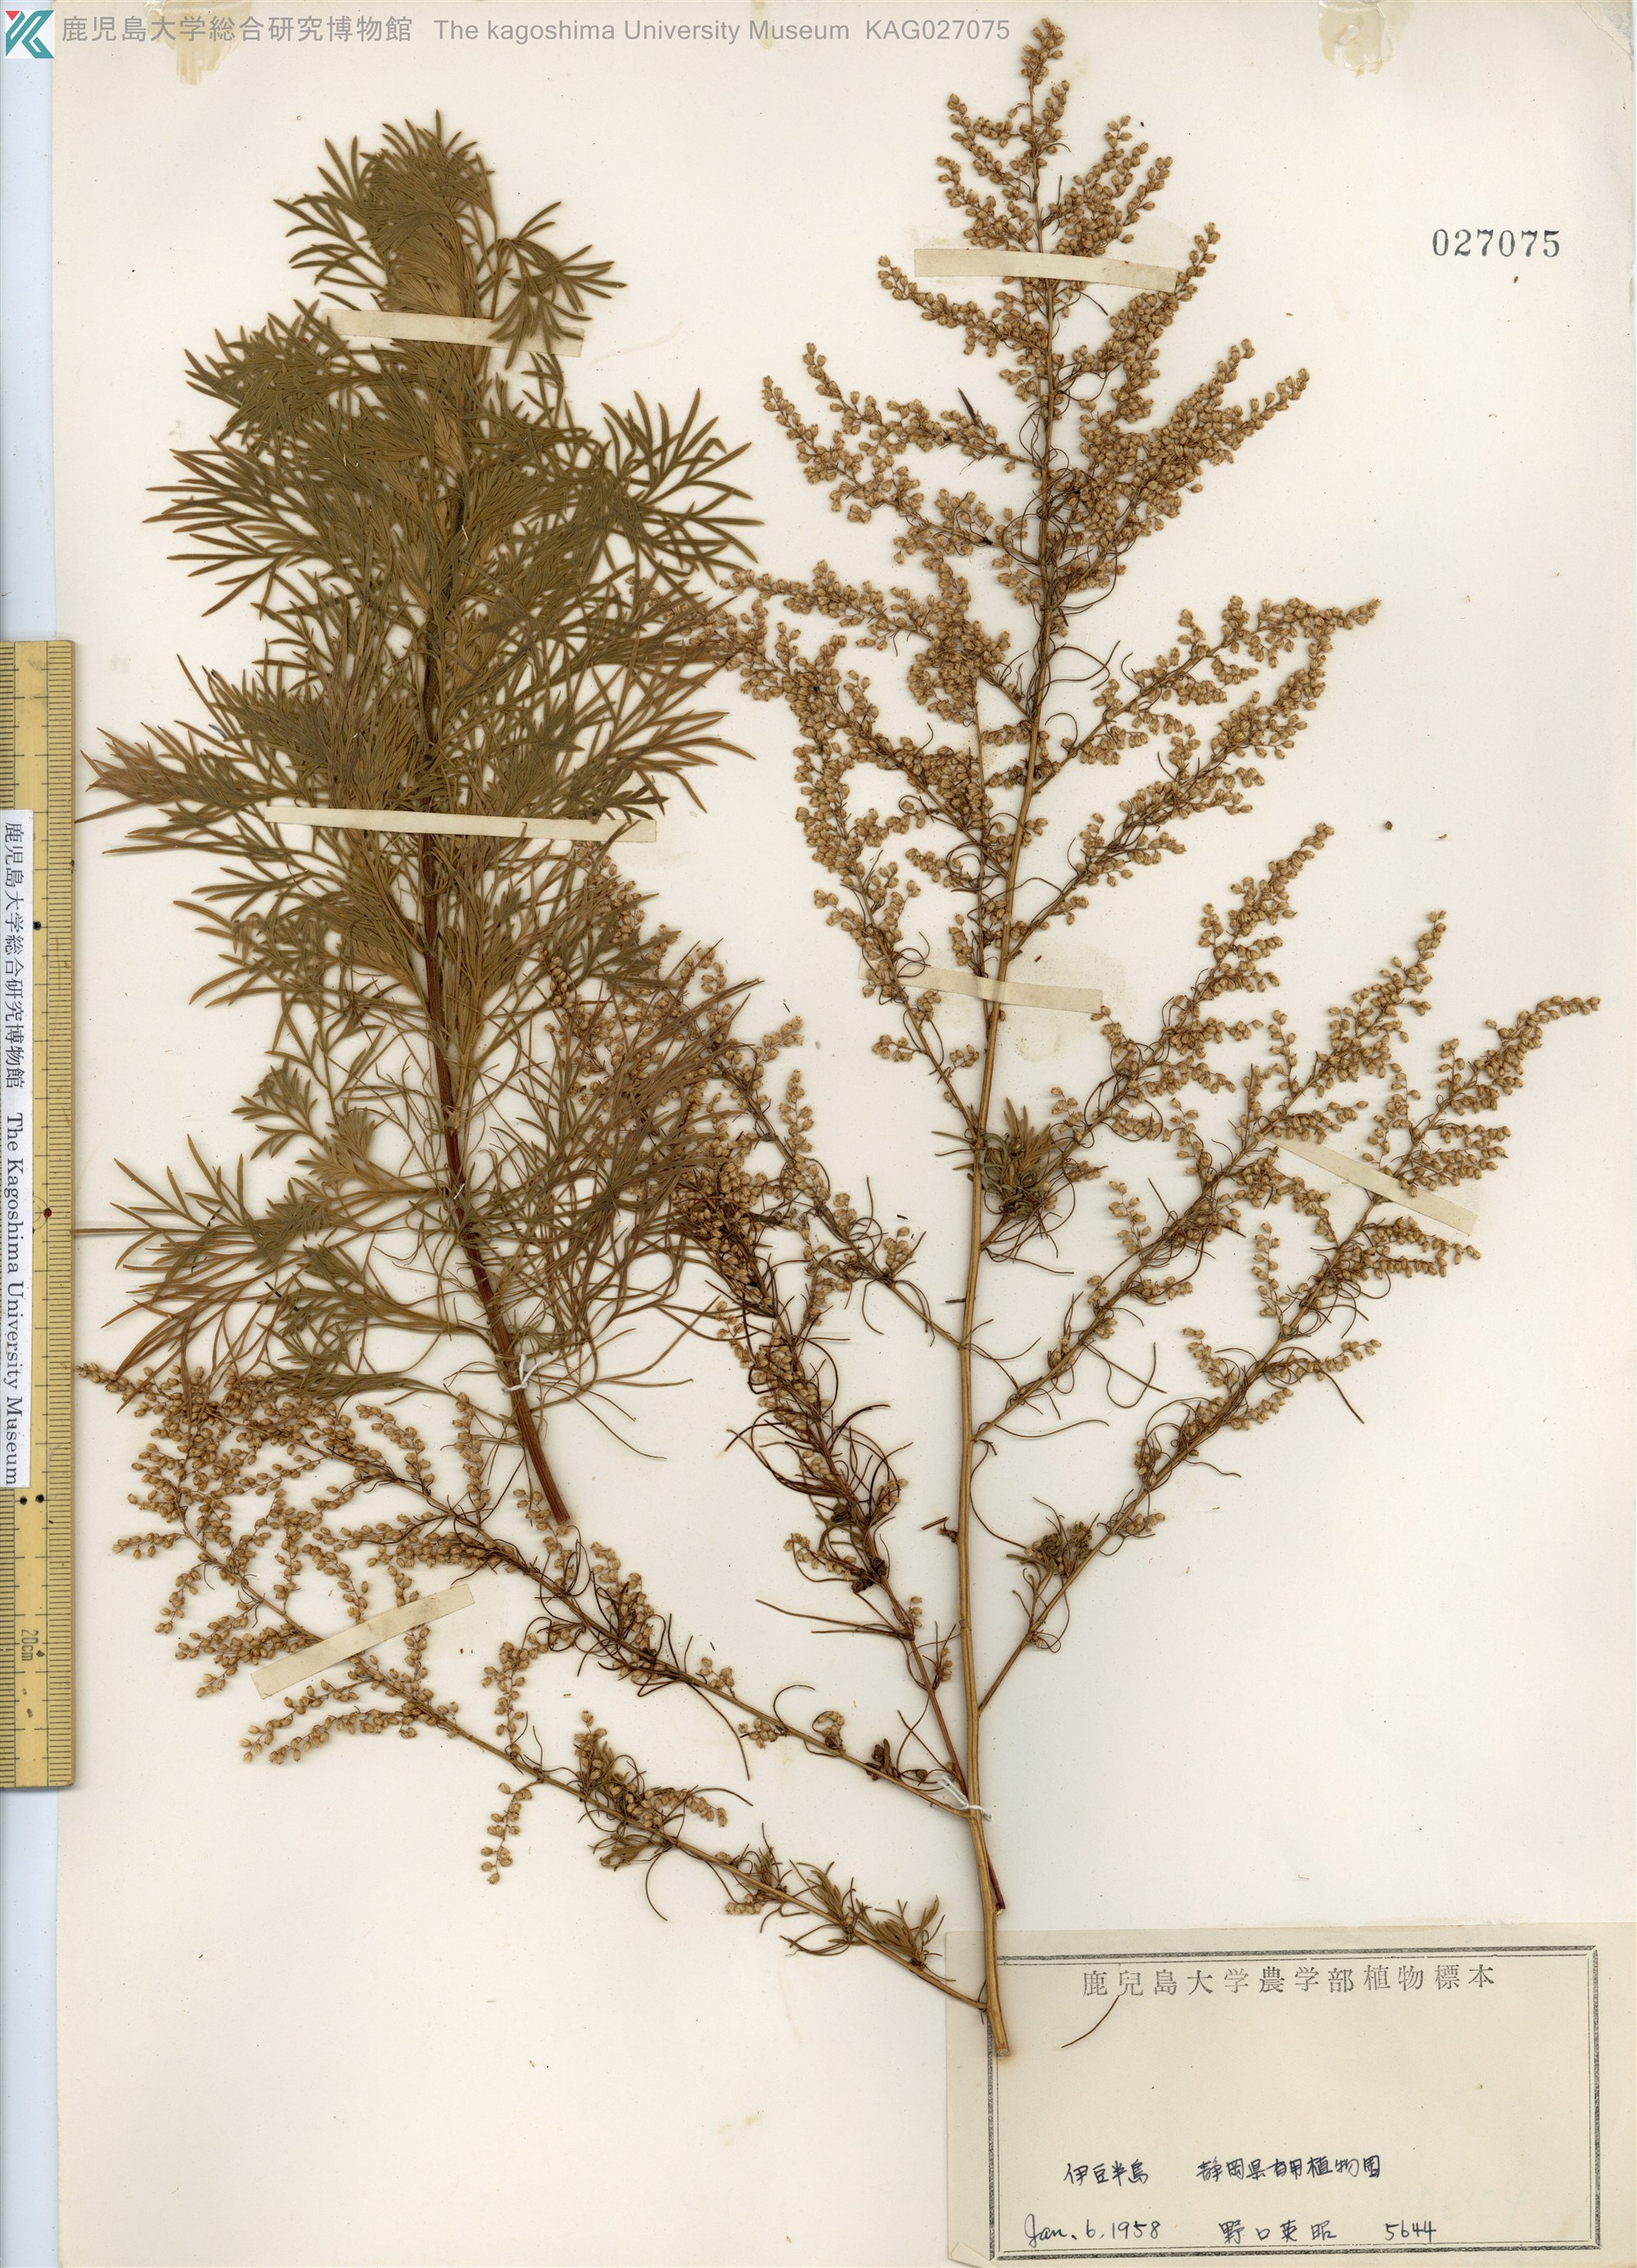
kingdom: Plantae
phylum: Tracheophyta
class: Magnoliopsida
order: Asterales
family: Asteraceae
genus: Artemisia
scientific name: Artemisia capillaris
